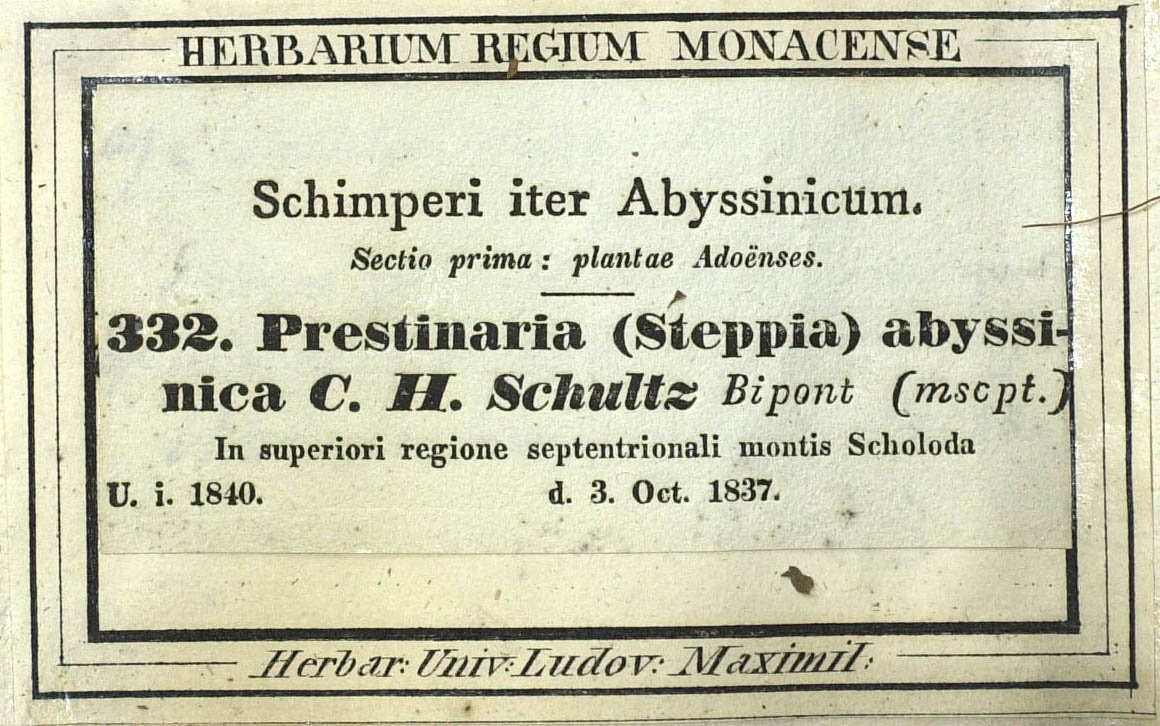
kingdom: Plantae
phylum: Tracheophyta
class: Magnoliopsida
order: Asterales
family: Asteraceae
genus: Bidens
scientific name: Bidens camporum
